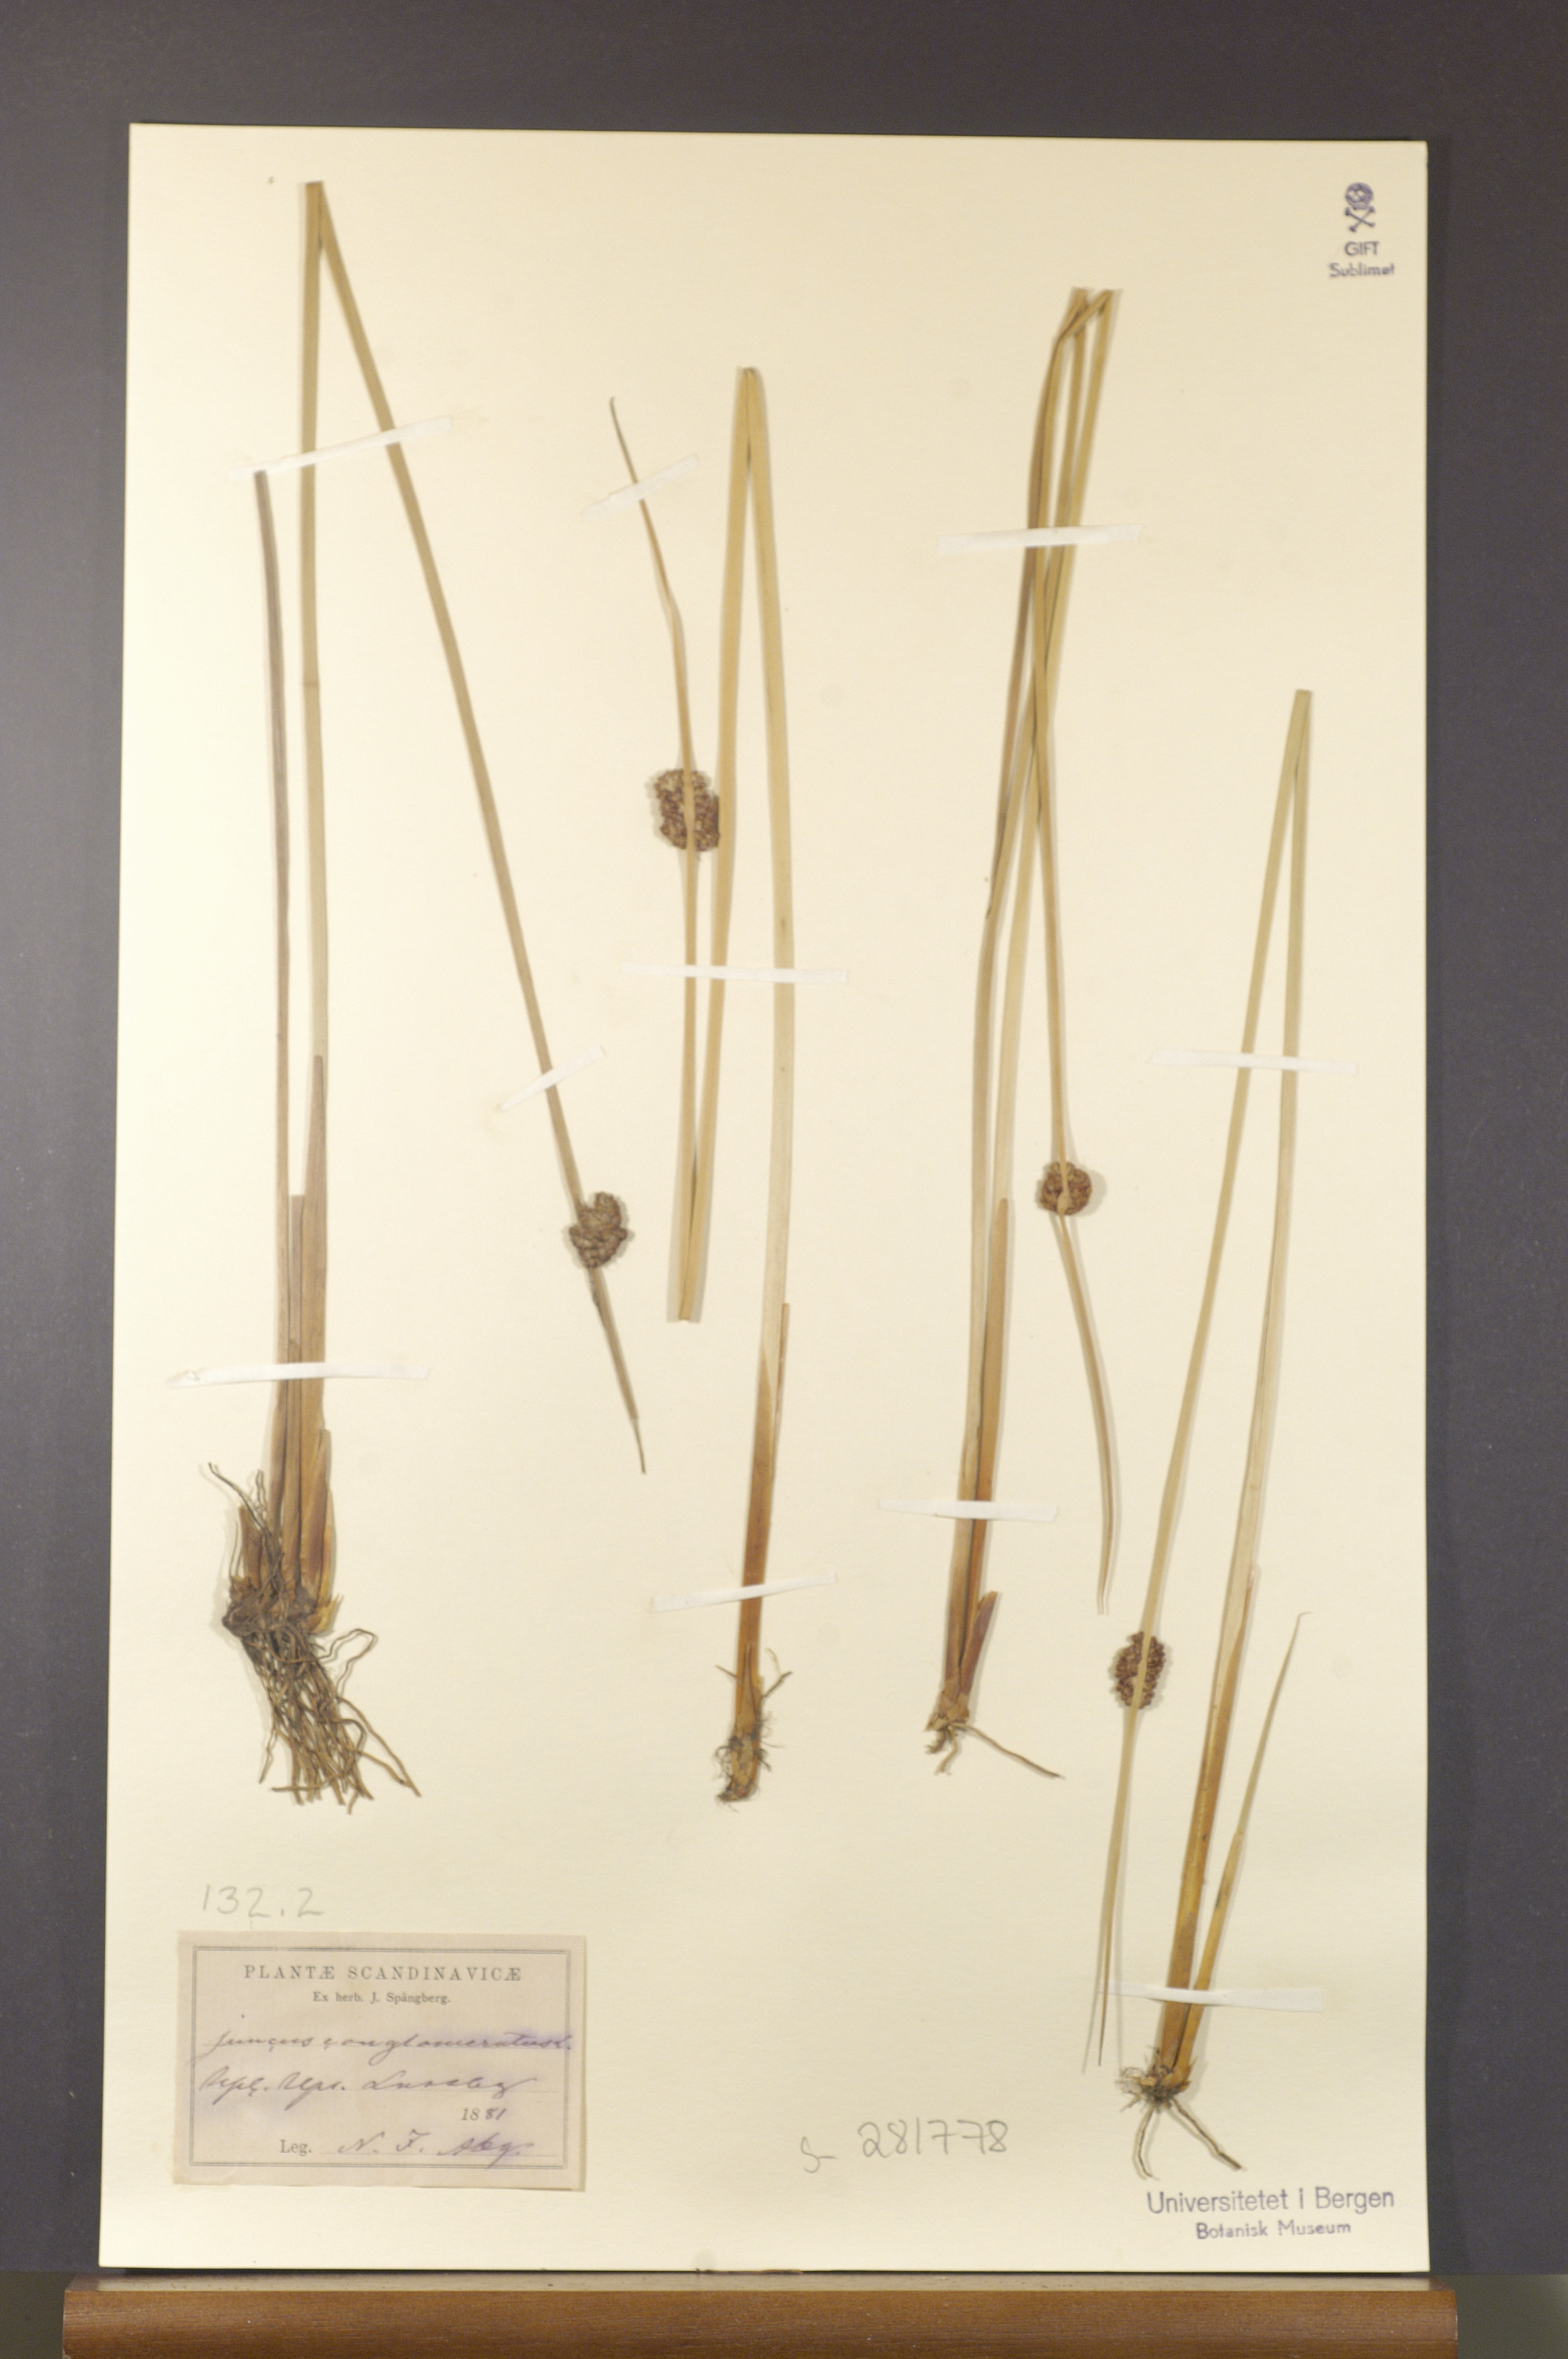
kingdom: Plantae
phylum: Tracheophyta
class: Liliopsida
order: Poales
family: Juncaceae
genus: Juncus
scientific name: Juncus conglomeratus
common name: Compact rush
